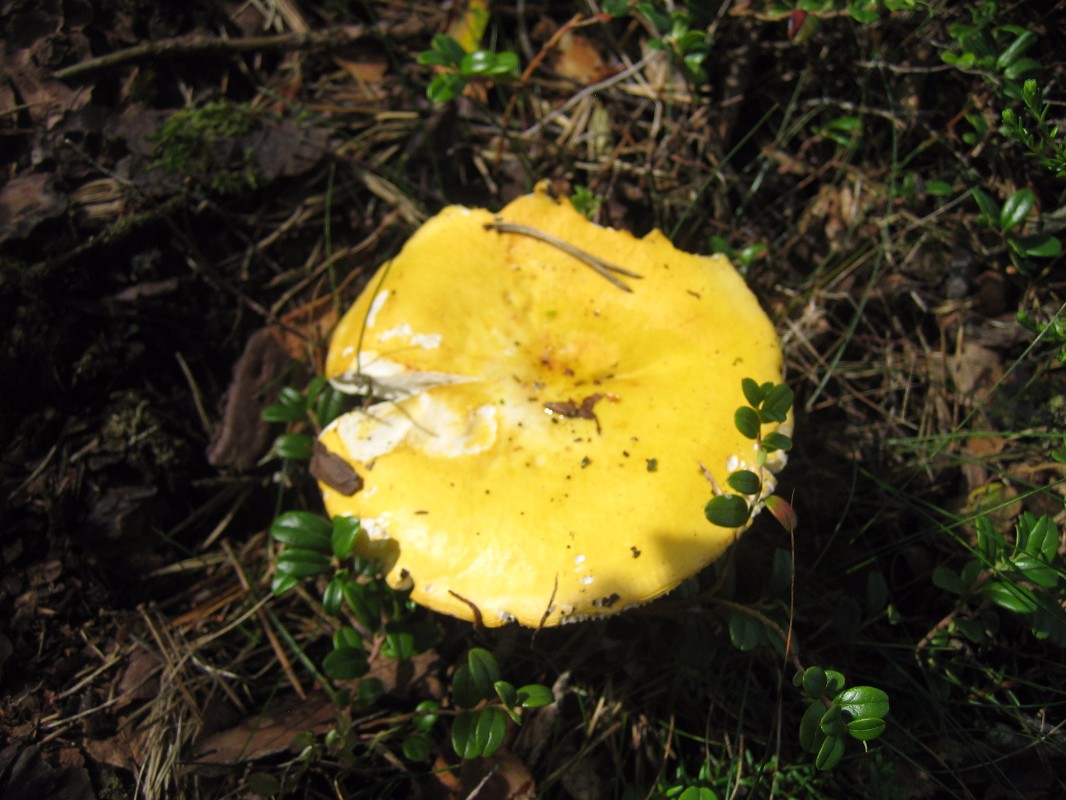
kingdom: Fungi
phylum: Basidiomycota
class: Agaricomycetes
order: Russulales
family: Russulaceae
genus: Russula
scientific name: Russula claroflava
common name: birke-skørhat
